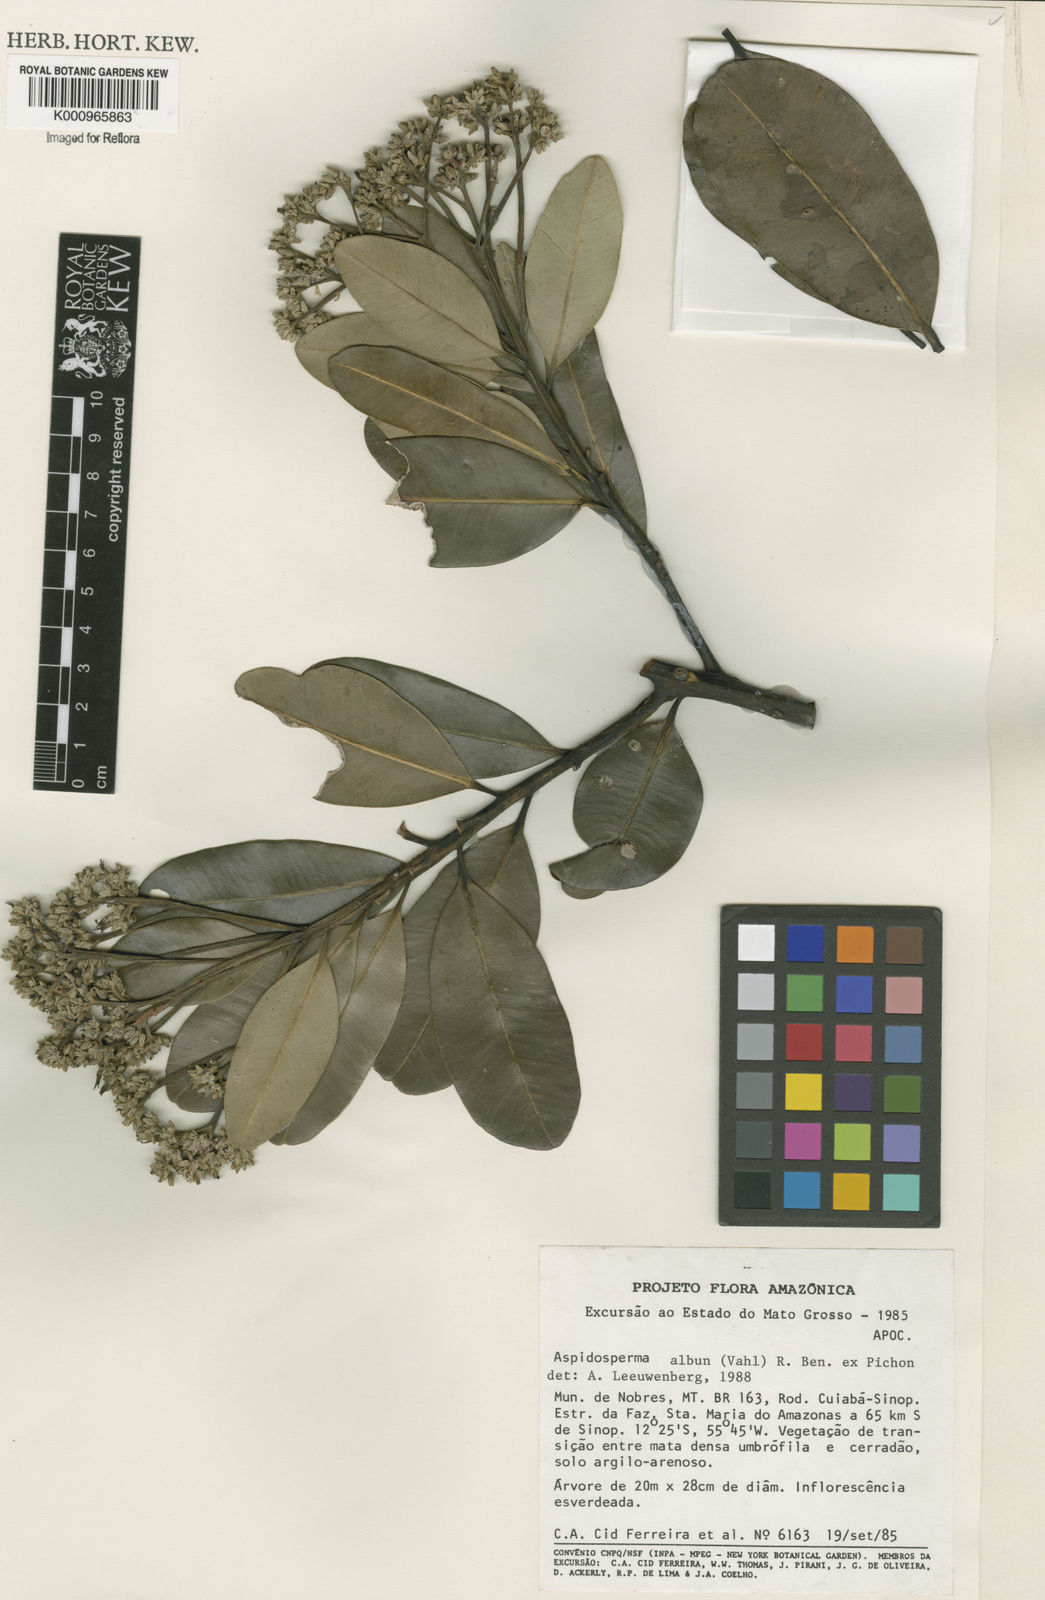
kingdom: Plantae
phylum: Tracheophyta
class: Magnoliopsida
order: Gentianales
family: Apocynaceae
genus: Aspidosperma
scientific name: Aspidosperma album
